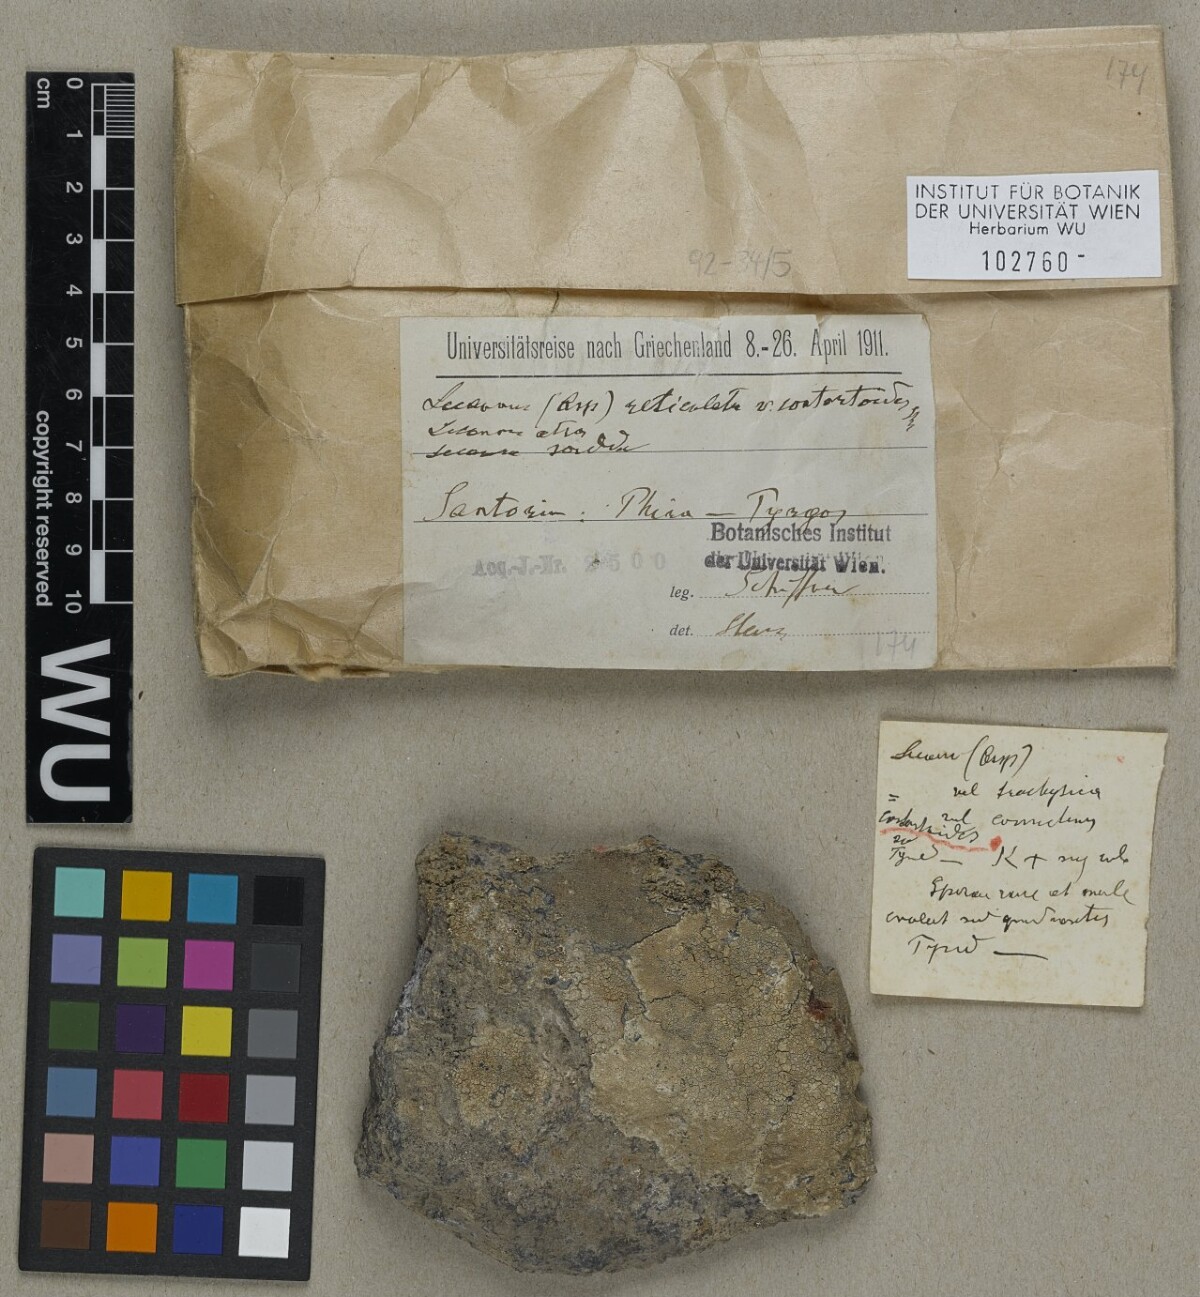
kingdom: Fungi
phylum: Ascomycota
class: Lecanoromycetes
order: Lecanorales
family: Lecanoraceae
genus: Lecanora
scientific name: Lecanora reticulata
